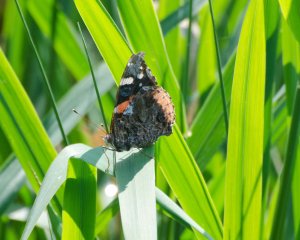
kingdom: Animalia
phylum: Arthropoda
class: Insecta
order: Lepidoptera
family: Nymphalidae
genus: Vanessa
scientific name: Vanessa atalanta
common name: Red Admiral
